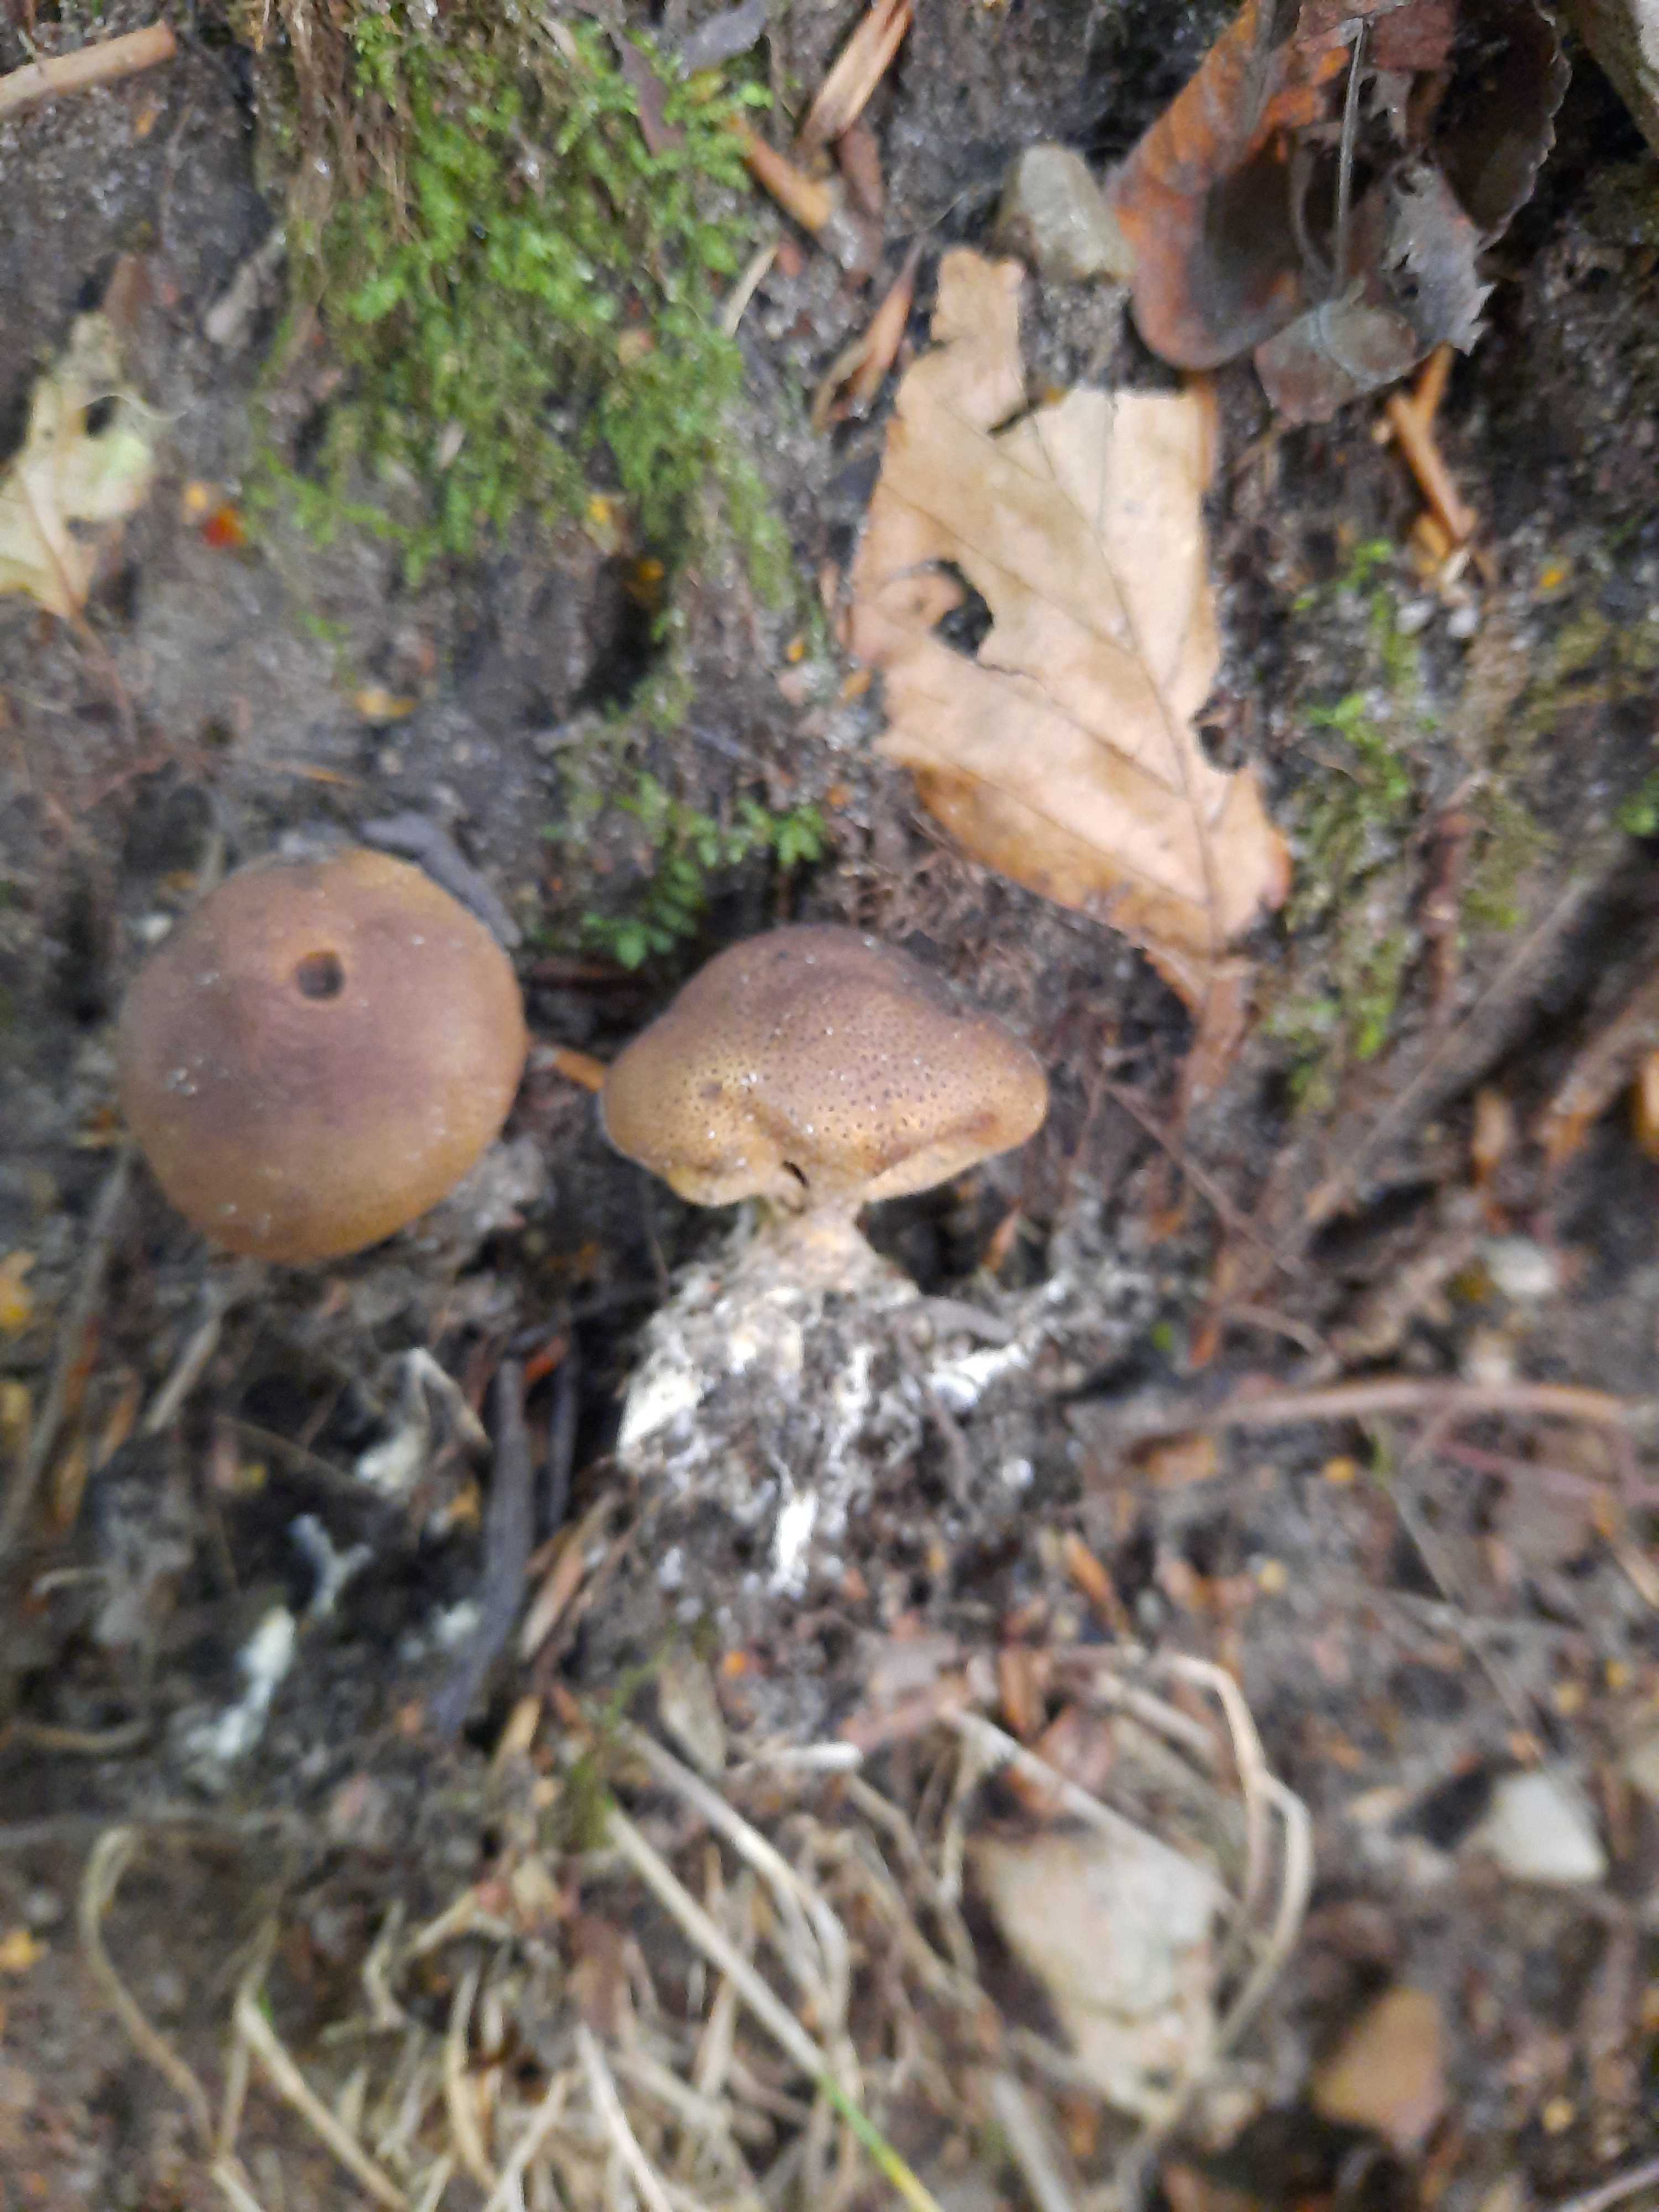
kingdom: Fungi
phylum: Basidiomycota
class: Agaricomycetes
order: Boletales
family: Sclerodermataceae
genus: Scleroderma
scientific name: Scleroderma
